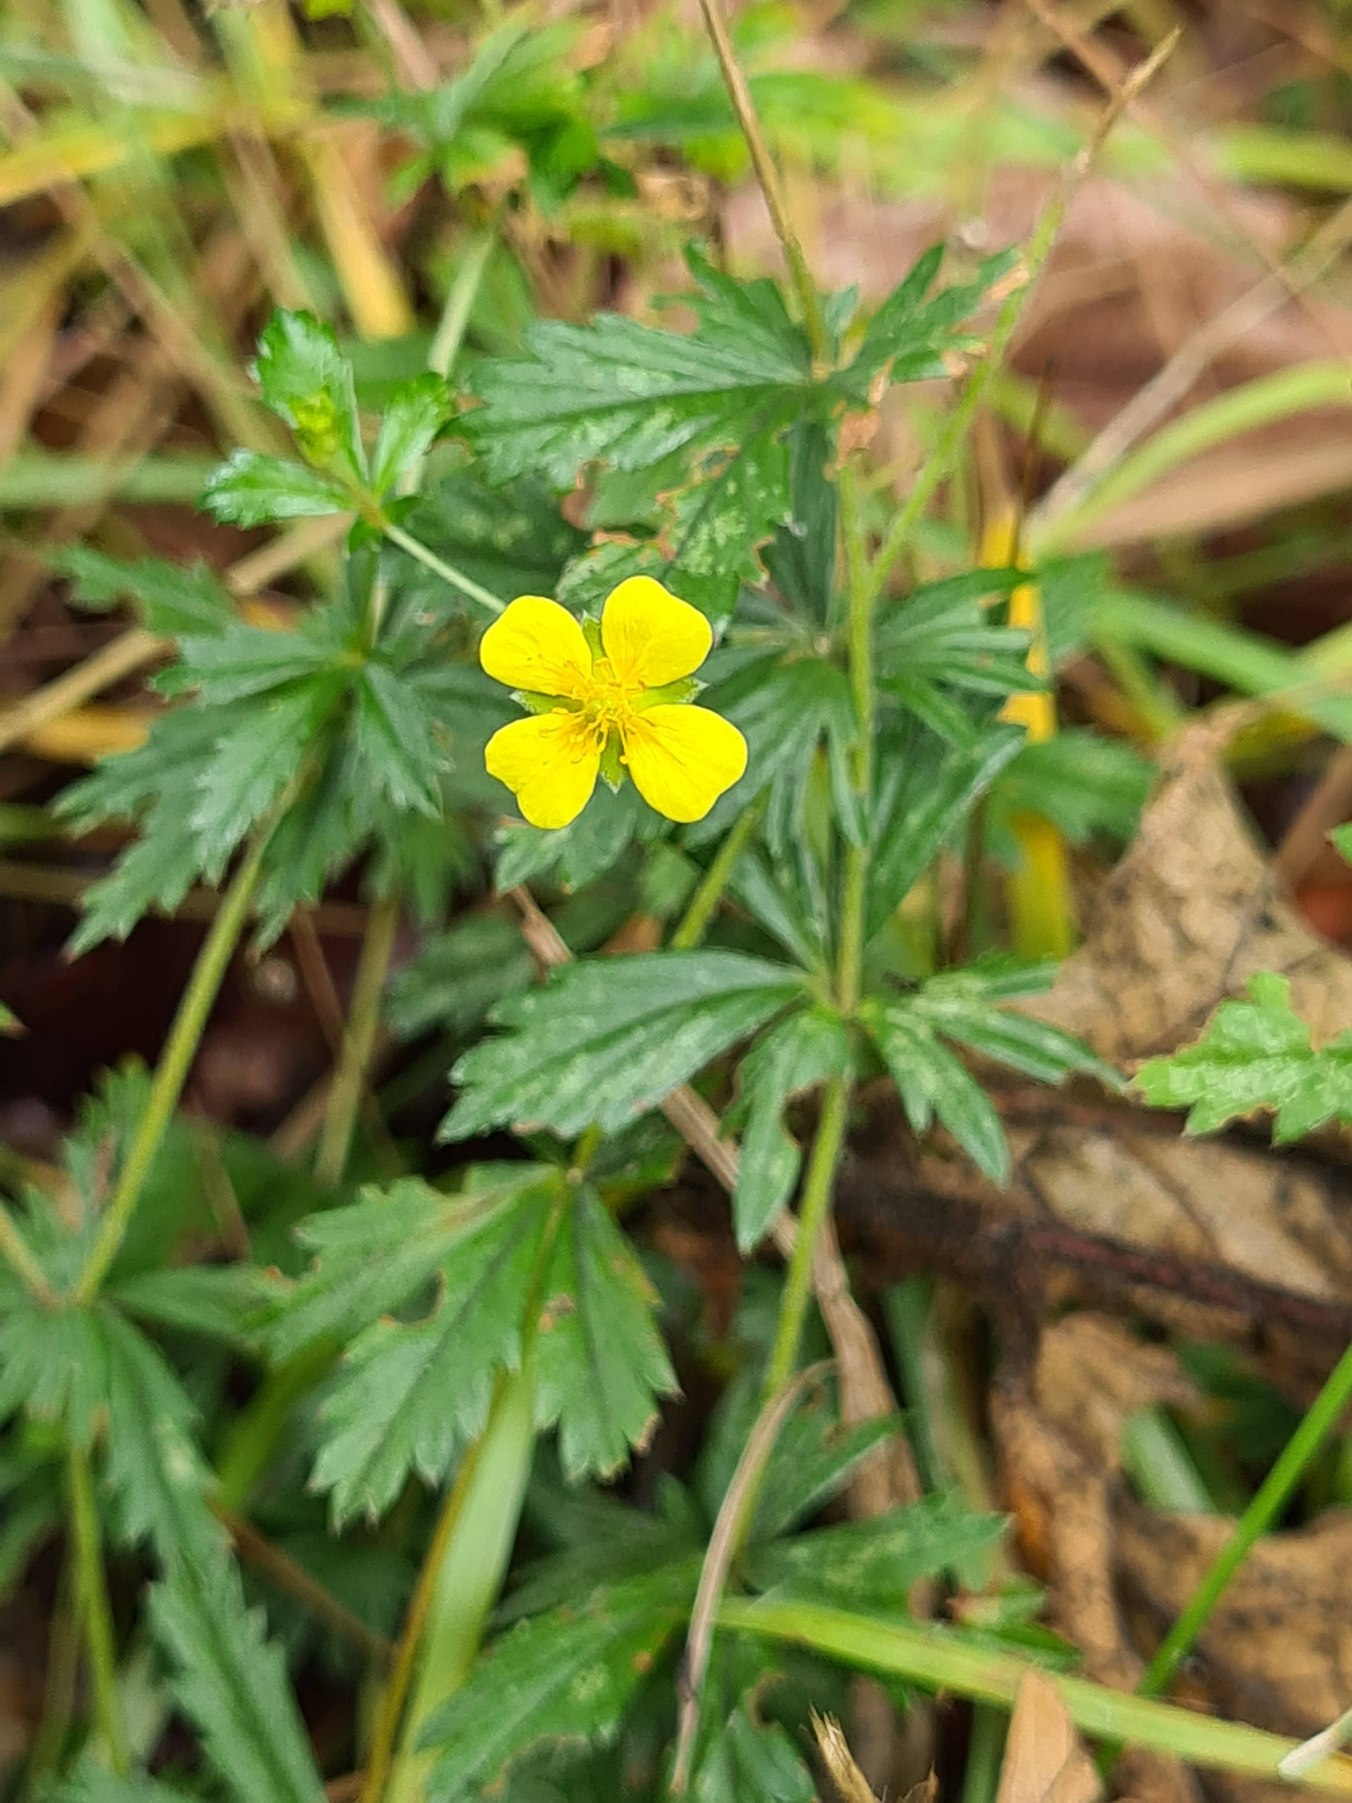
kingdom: Plantae
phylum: Tracheophyta
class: Magnoliopsida
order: Rosales
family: Rosaceae
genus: Potentilla
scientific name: Potentilla erecta
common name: Tormentil
